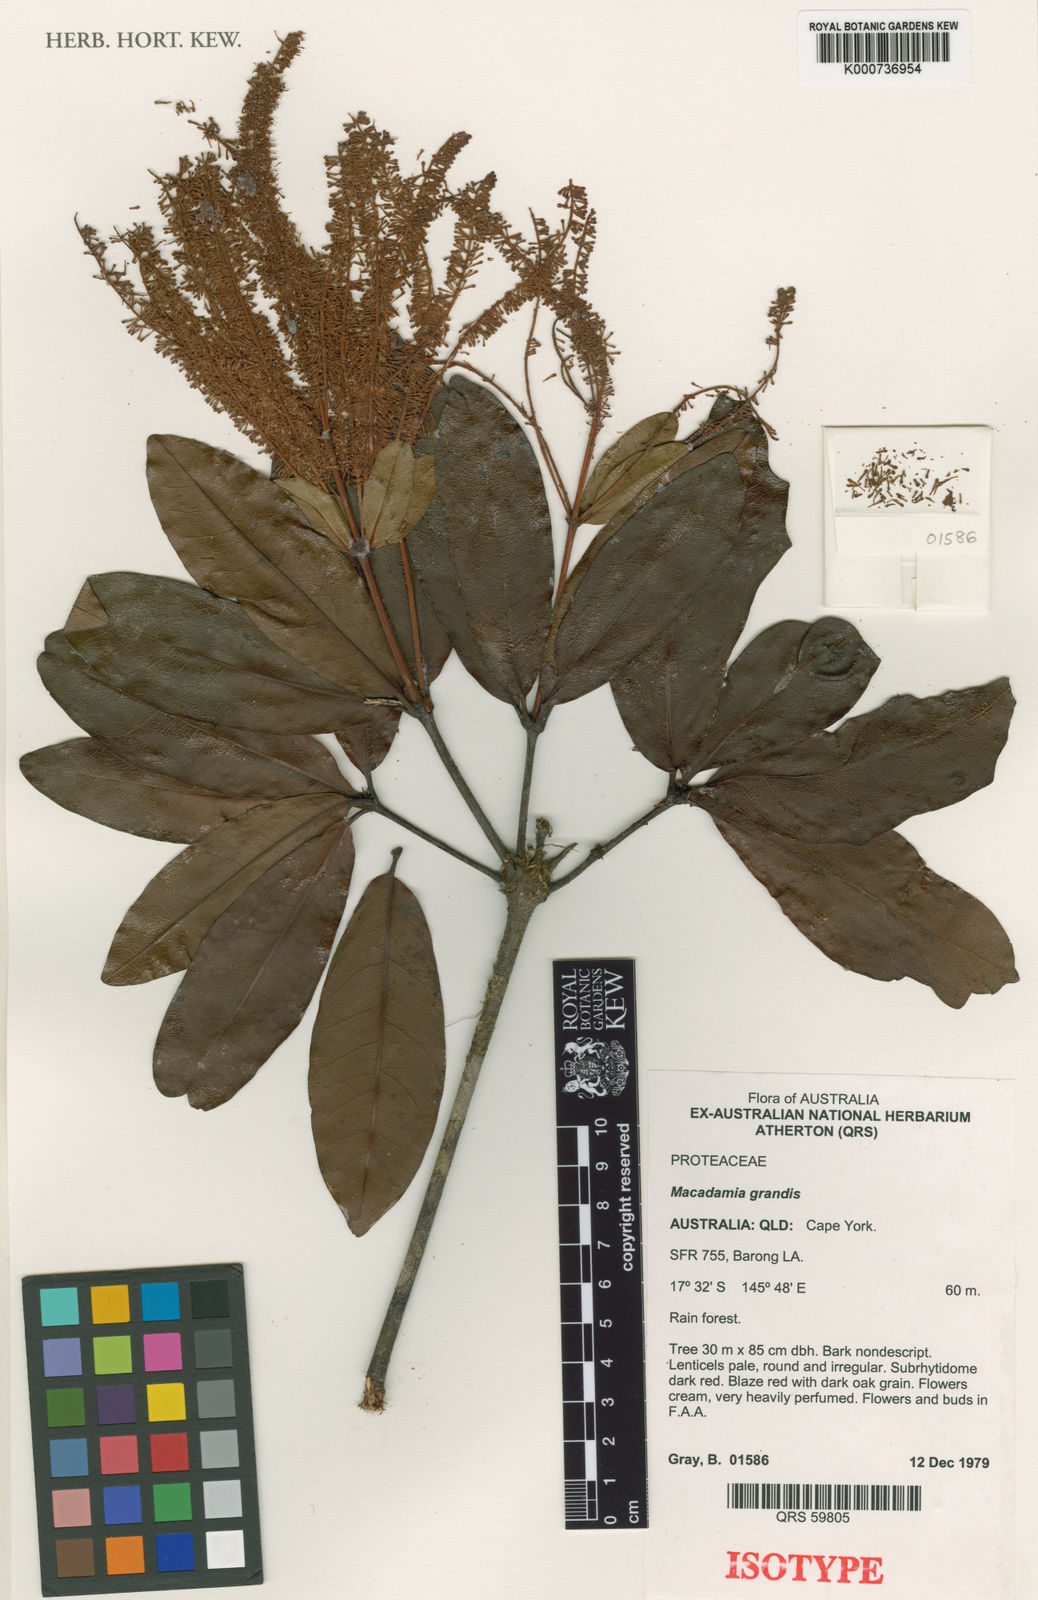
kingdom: Plantae
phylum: Tracheophyta
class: Magnoliopsida
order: Proteales
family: Proteaceae
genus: Lasjia
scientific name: Lasjia grandis
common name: Satin silky-oak
